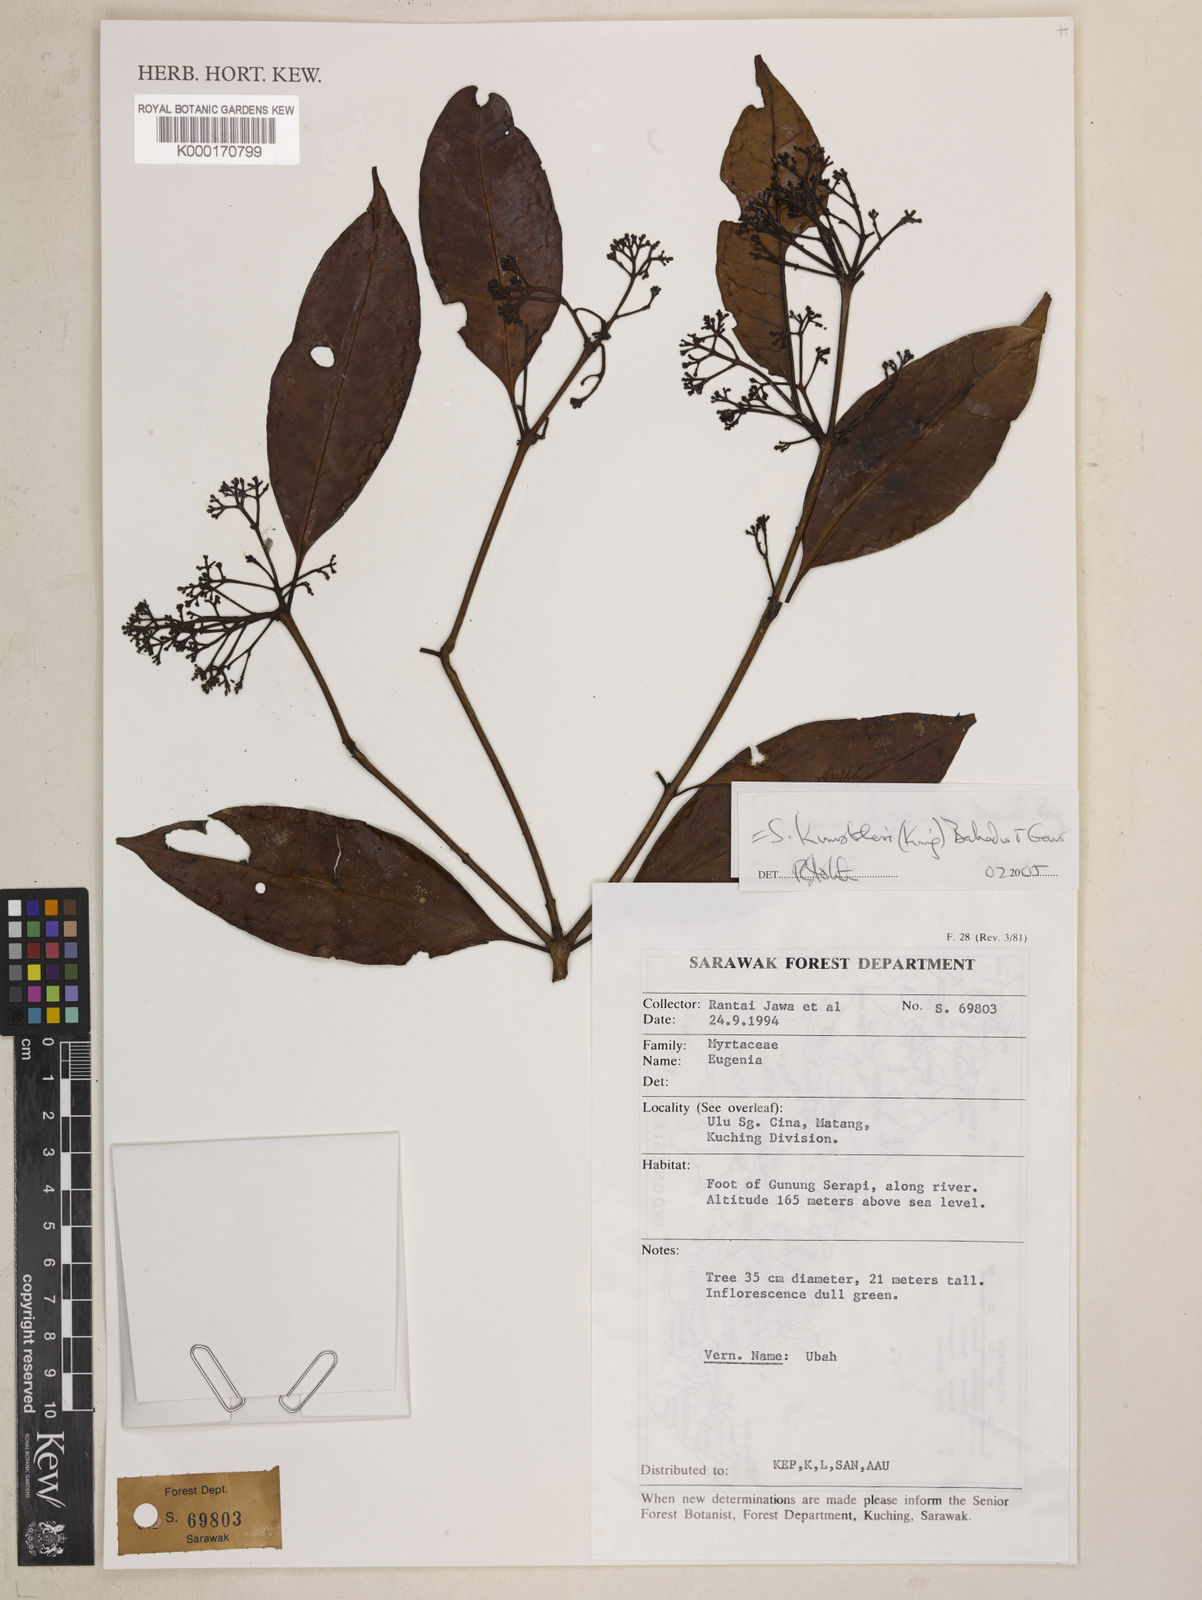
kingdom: Plantae
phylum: Tracheophyta
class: Magnoliopsida
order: Myrtales
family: Myrtaceae
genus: Syzygium
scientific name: Syzygium kunstleri
